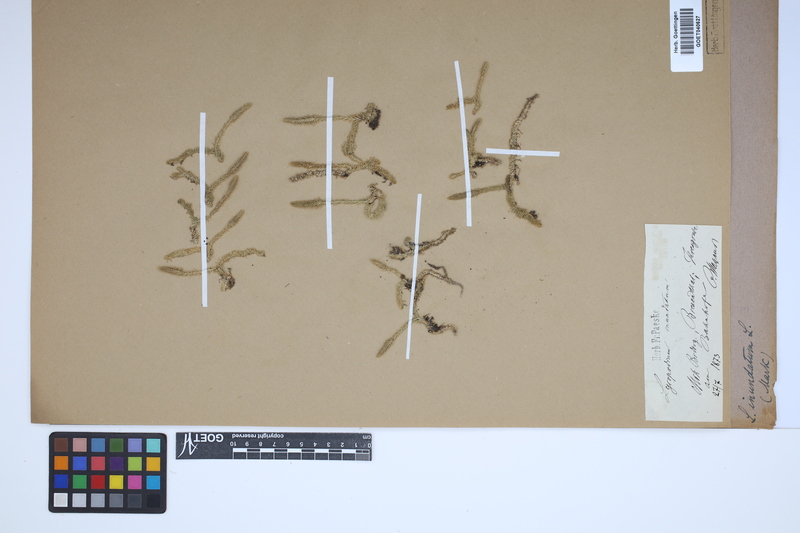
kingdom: Plantae
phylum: Tracheophyta
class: Lycopodiopsida
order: Lycopodiales
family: Lycopodiaceae
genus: Lycopodiella
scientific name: Lycopodiella inundata
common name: Marsh clubmoss
